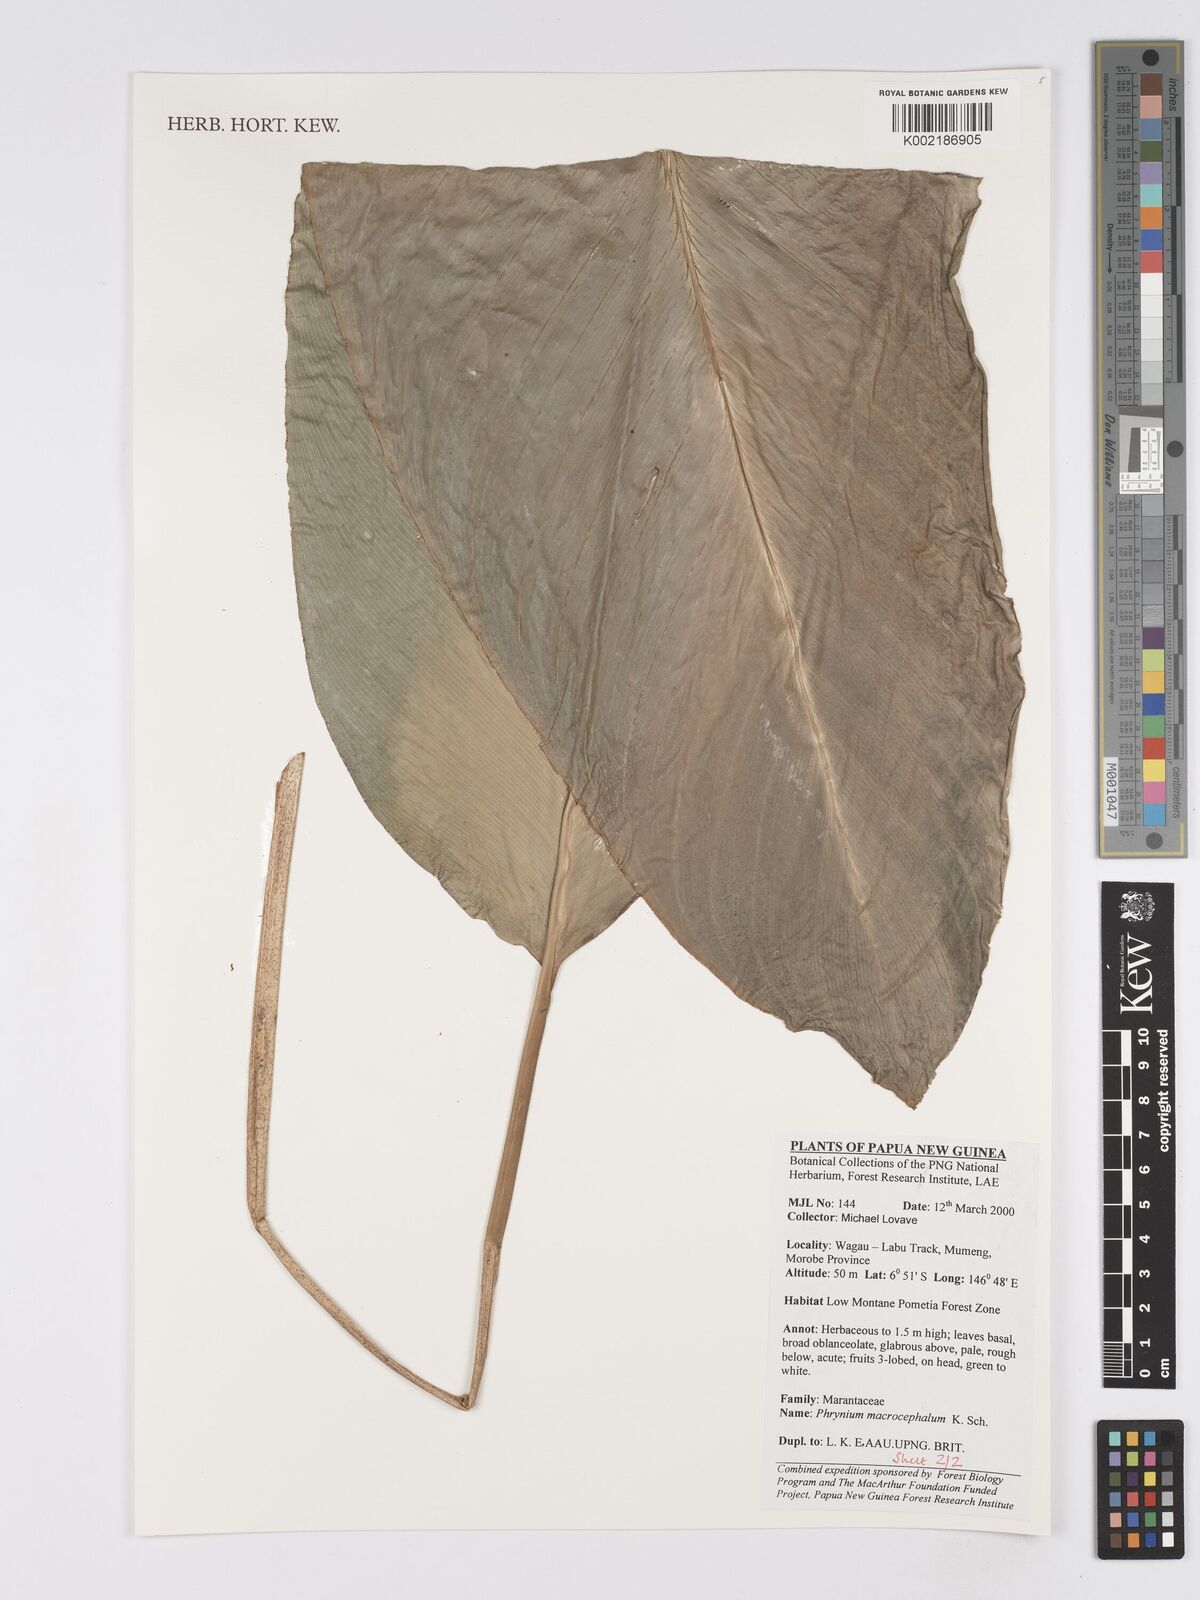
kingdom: Plantae
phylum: Tracheophyta
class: Liliopsida
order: Zingiberales
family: Marantaceae
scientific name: Marantaceae
